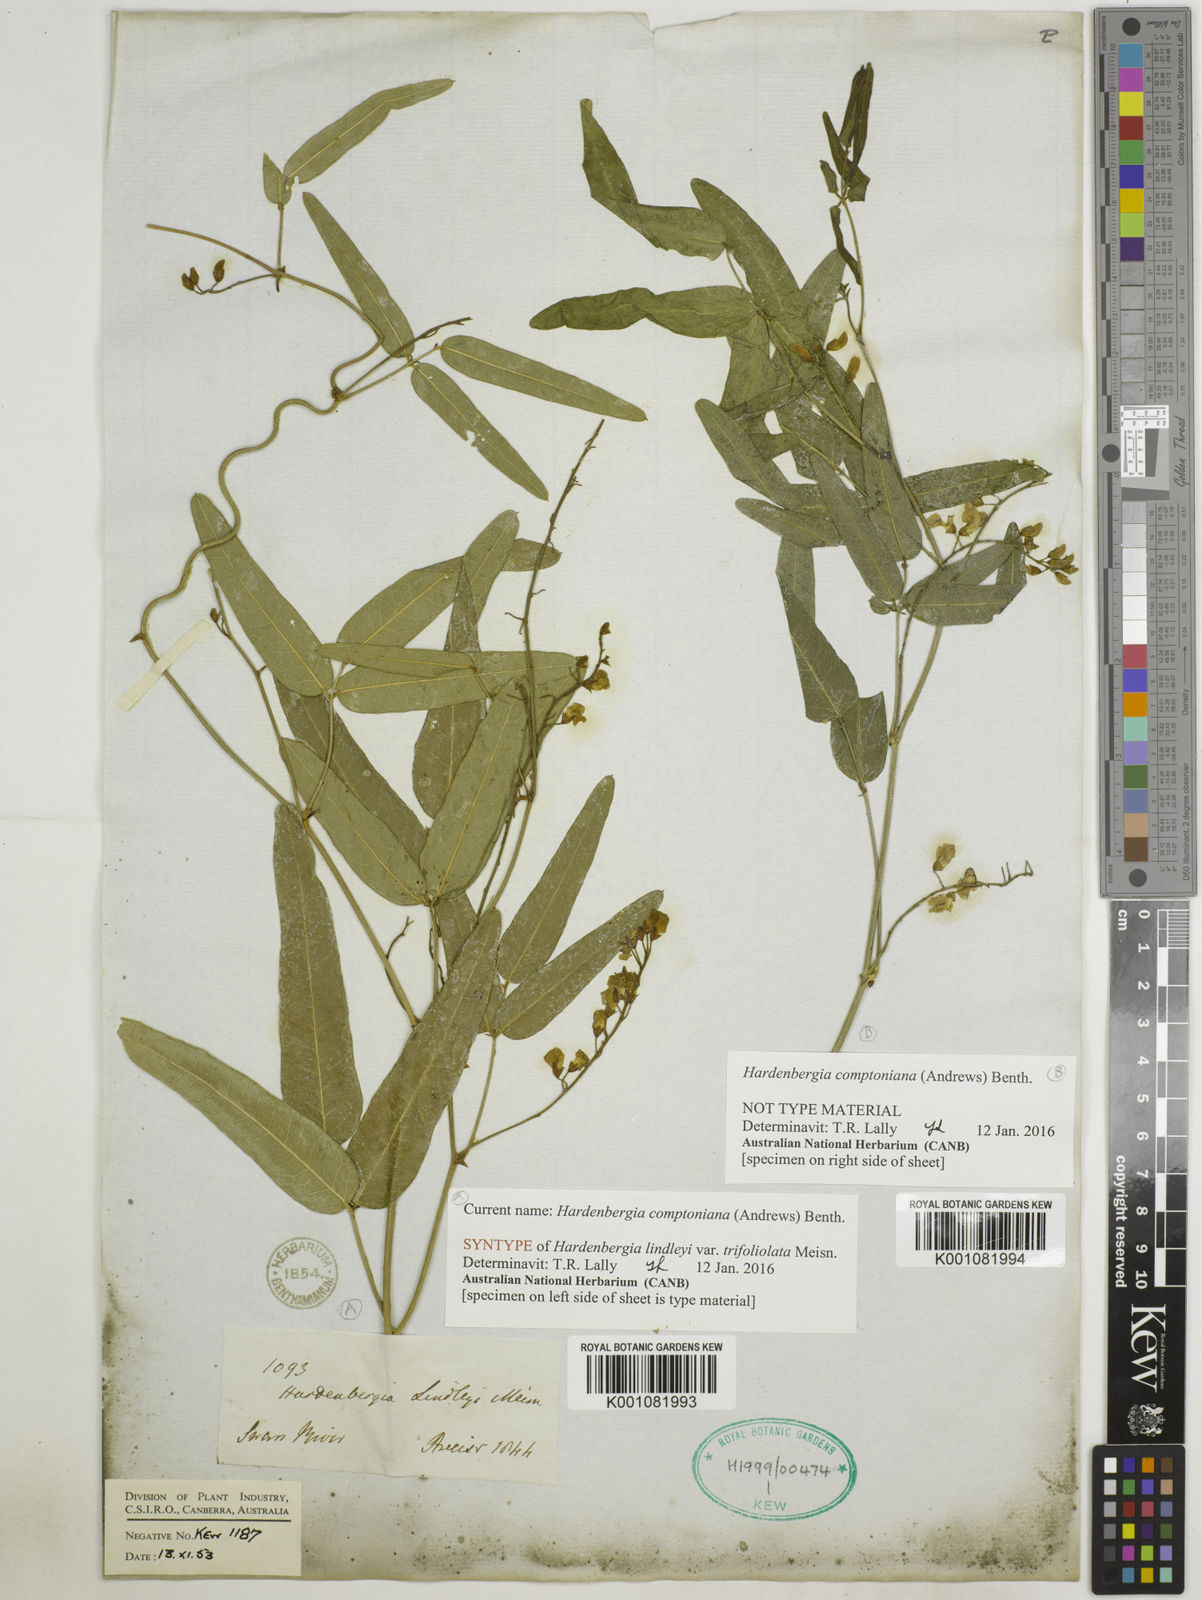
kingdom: Plantae
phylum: Tracheophyta
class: Magnoliopsida
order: Fabales
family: Fabaceae
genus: Hardenbergia
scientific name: Hardenbergia comptoniana
